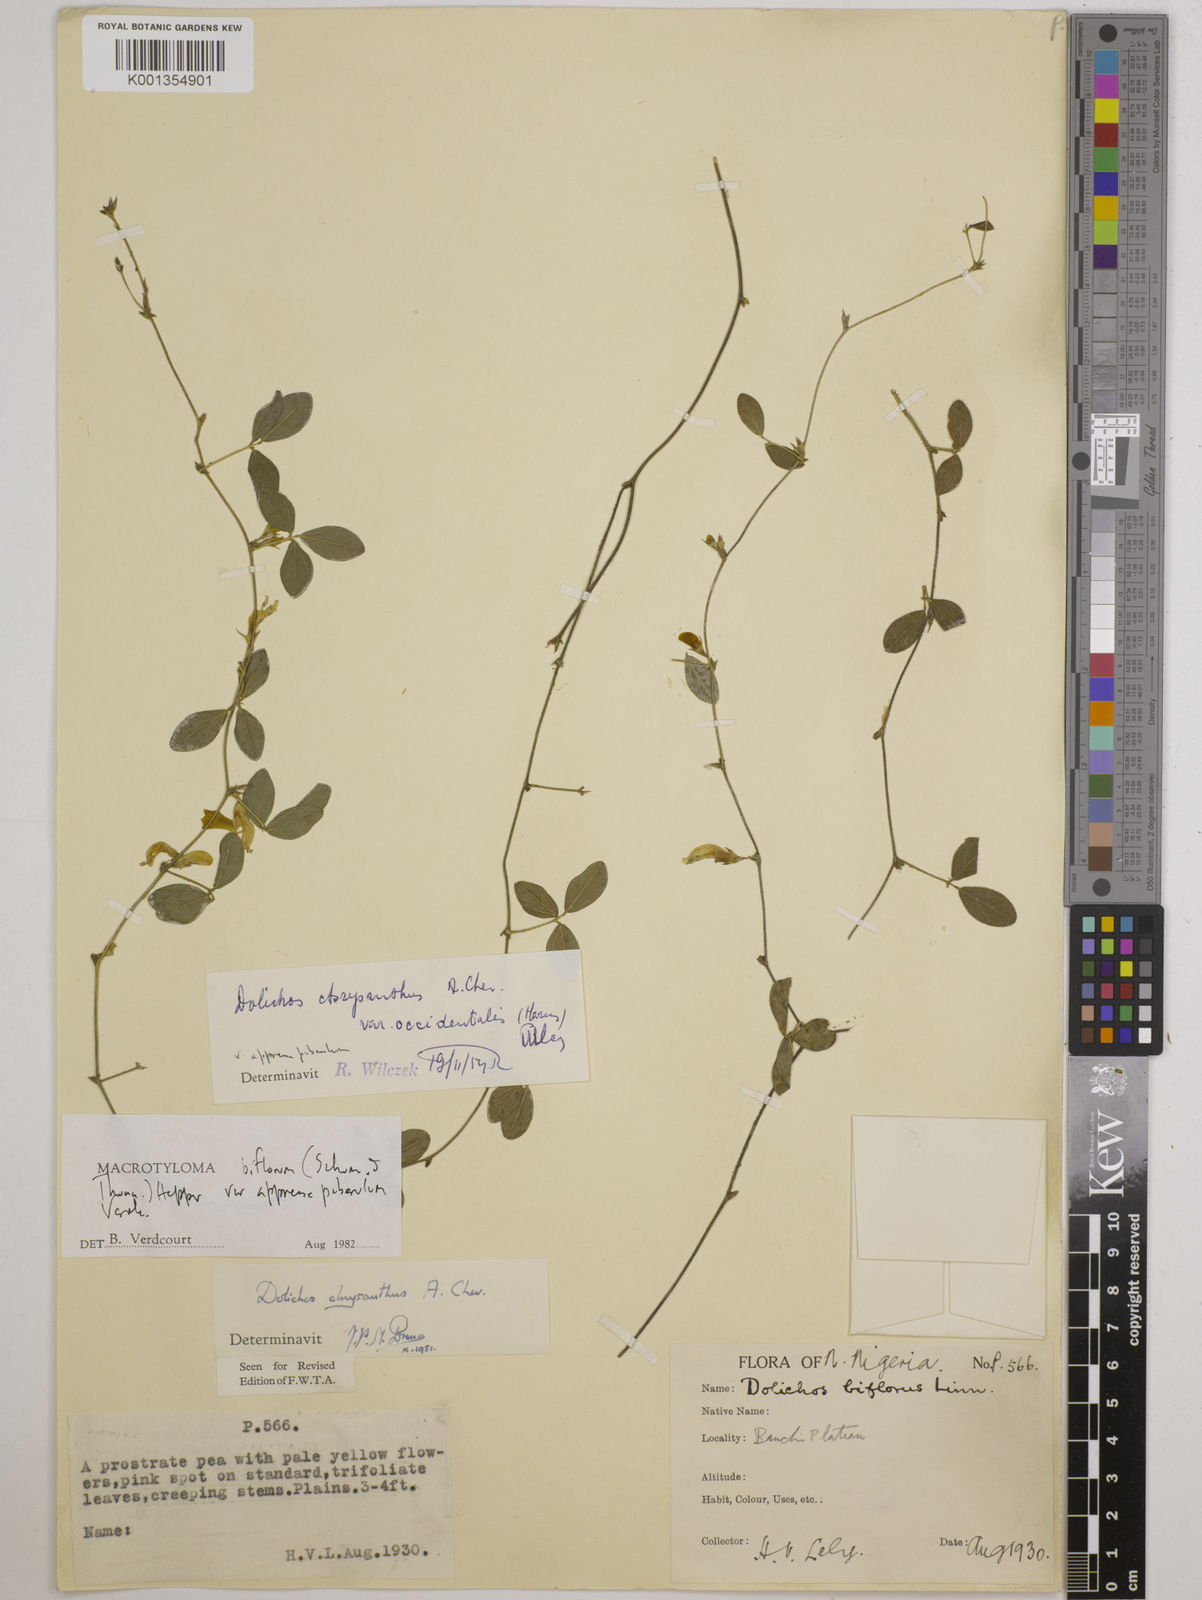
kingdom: Plantae
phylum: Tracheophyta
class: Magnoliopsida
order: Fabales
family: Fabaceae
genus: Macrotyloma
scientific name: Macrotyloma biflorum
